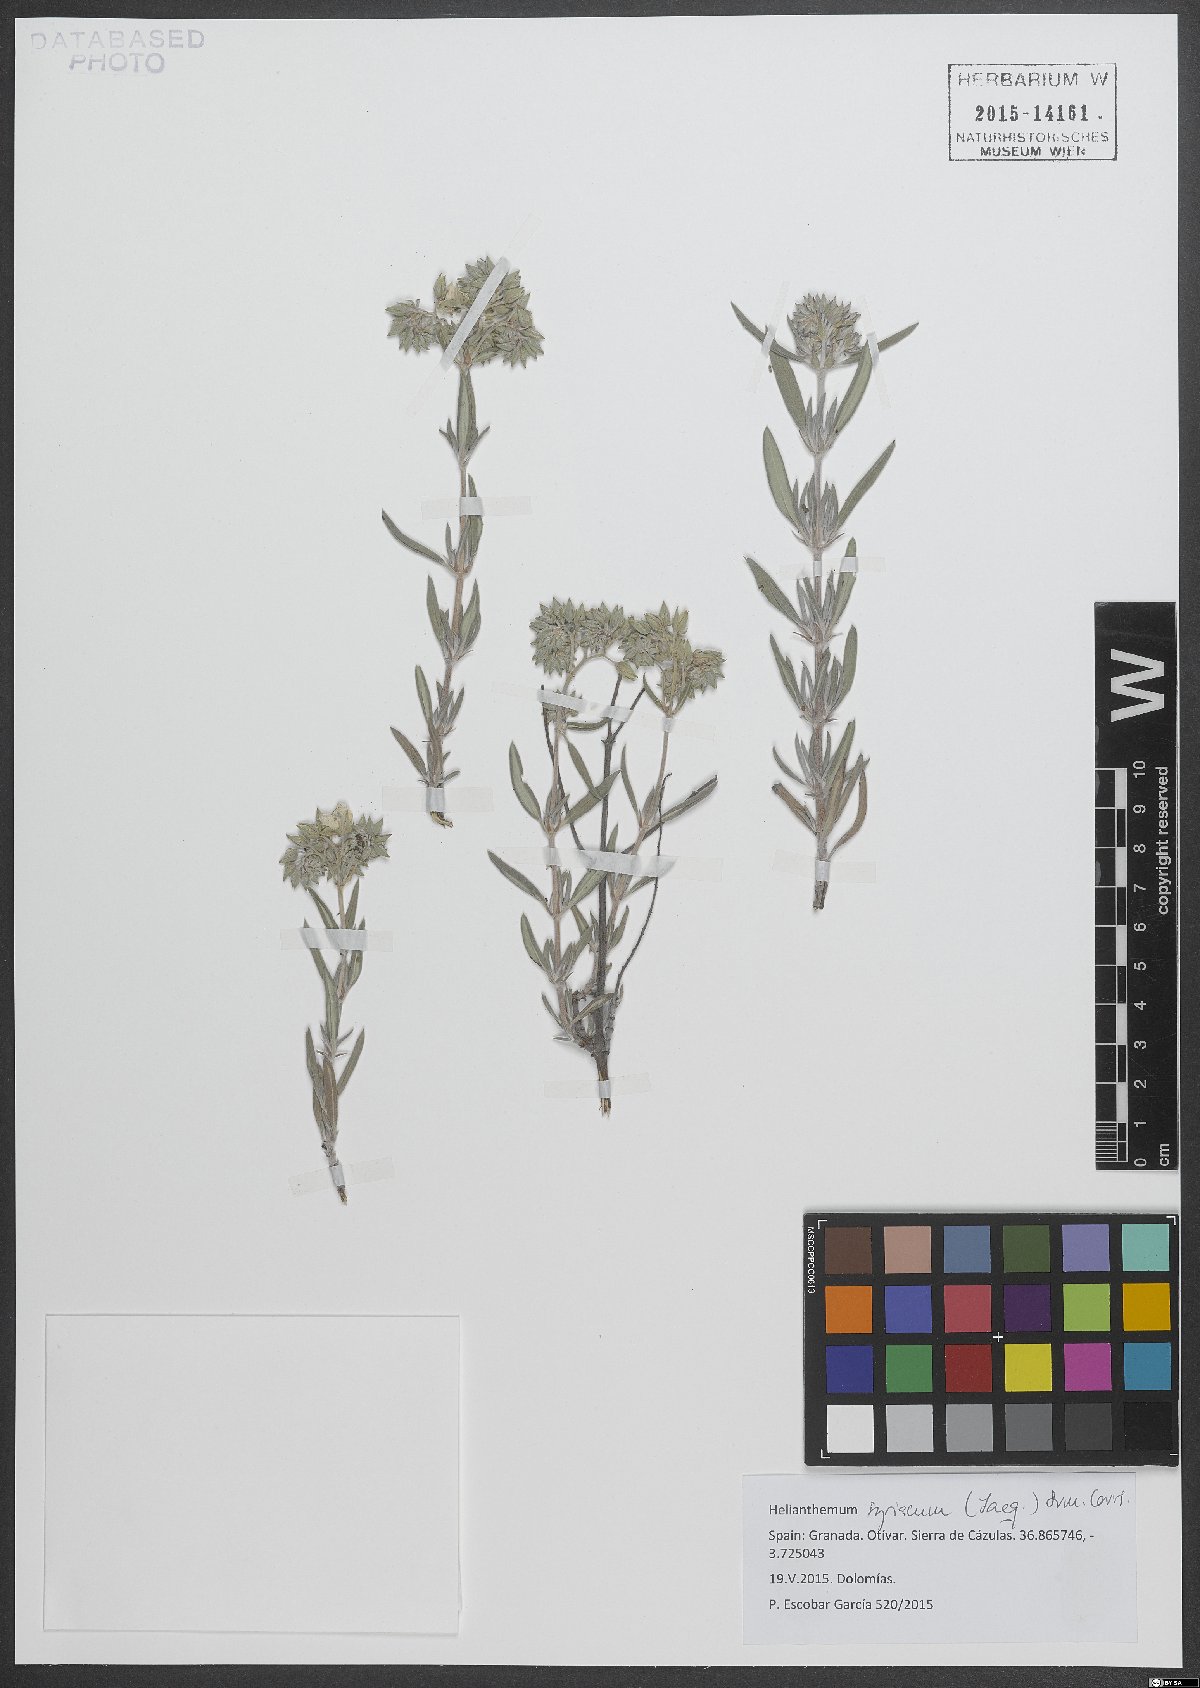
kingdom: Plantae
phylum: Tracheophyta
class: Magnoliopsida
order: Malvales
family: Cistaceae
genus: Helianthemum
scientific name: Helianthemum syriacum
